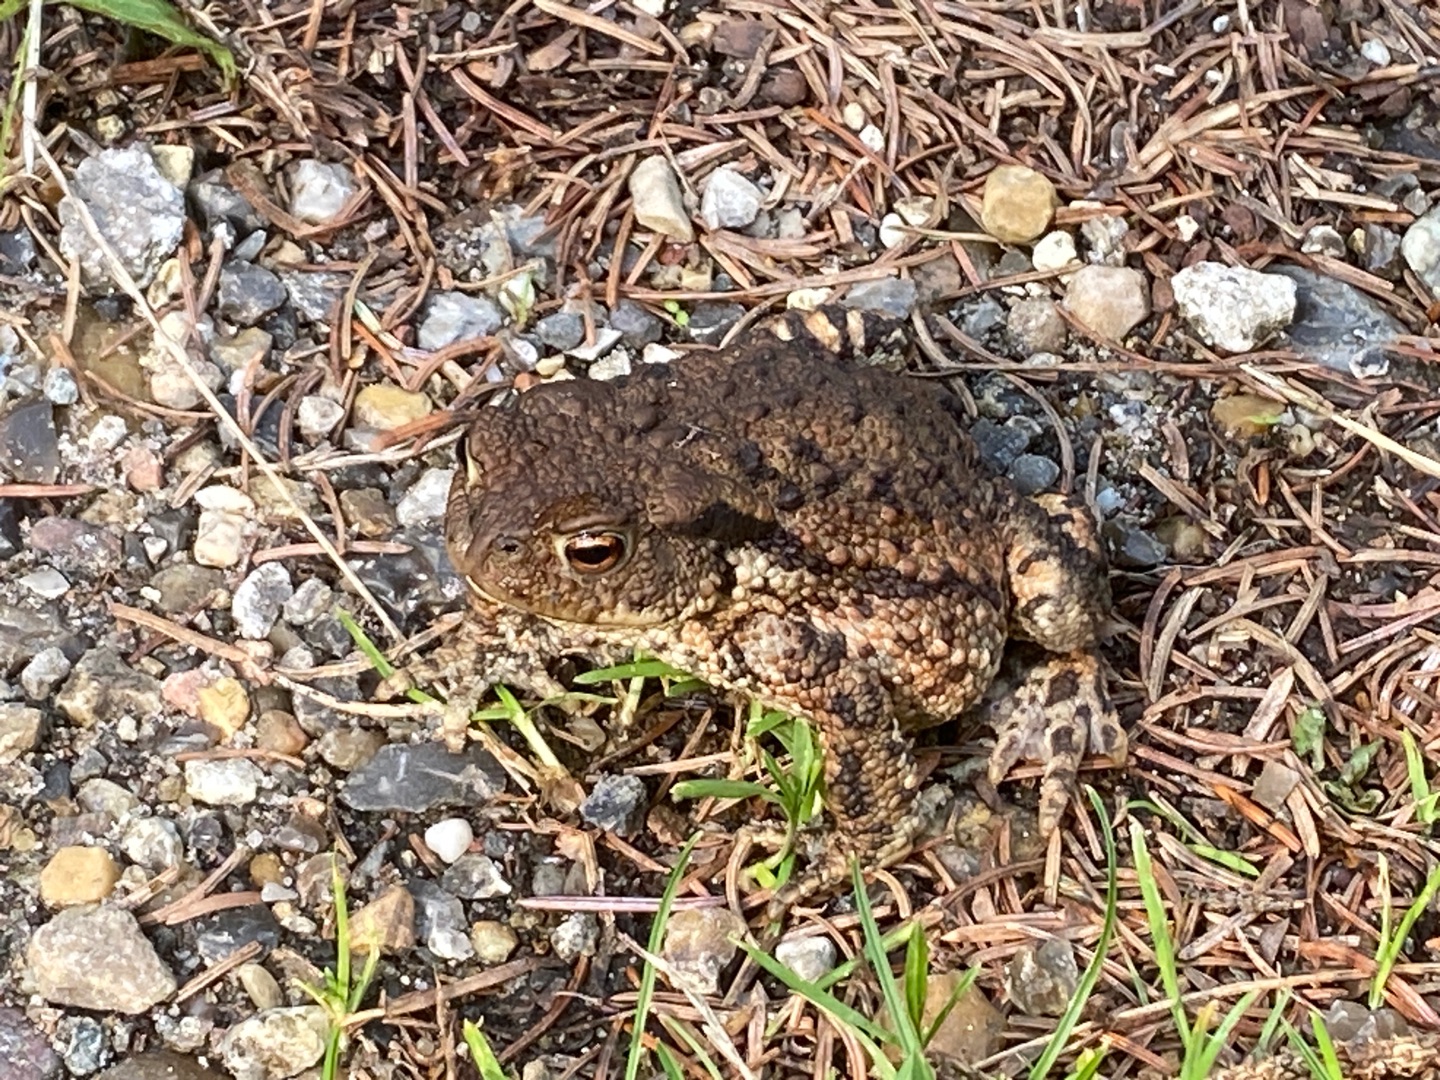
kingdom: Animalia
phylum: Chordata
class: Amphibia
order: Anura
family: Bufonidae
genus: Bufo
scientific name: Bufo bufo
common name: Skrubtudse
